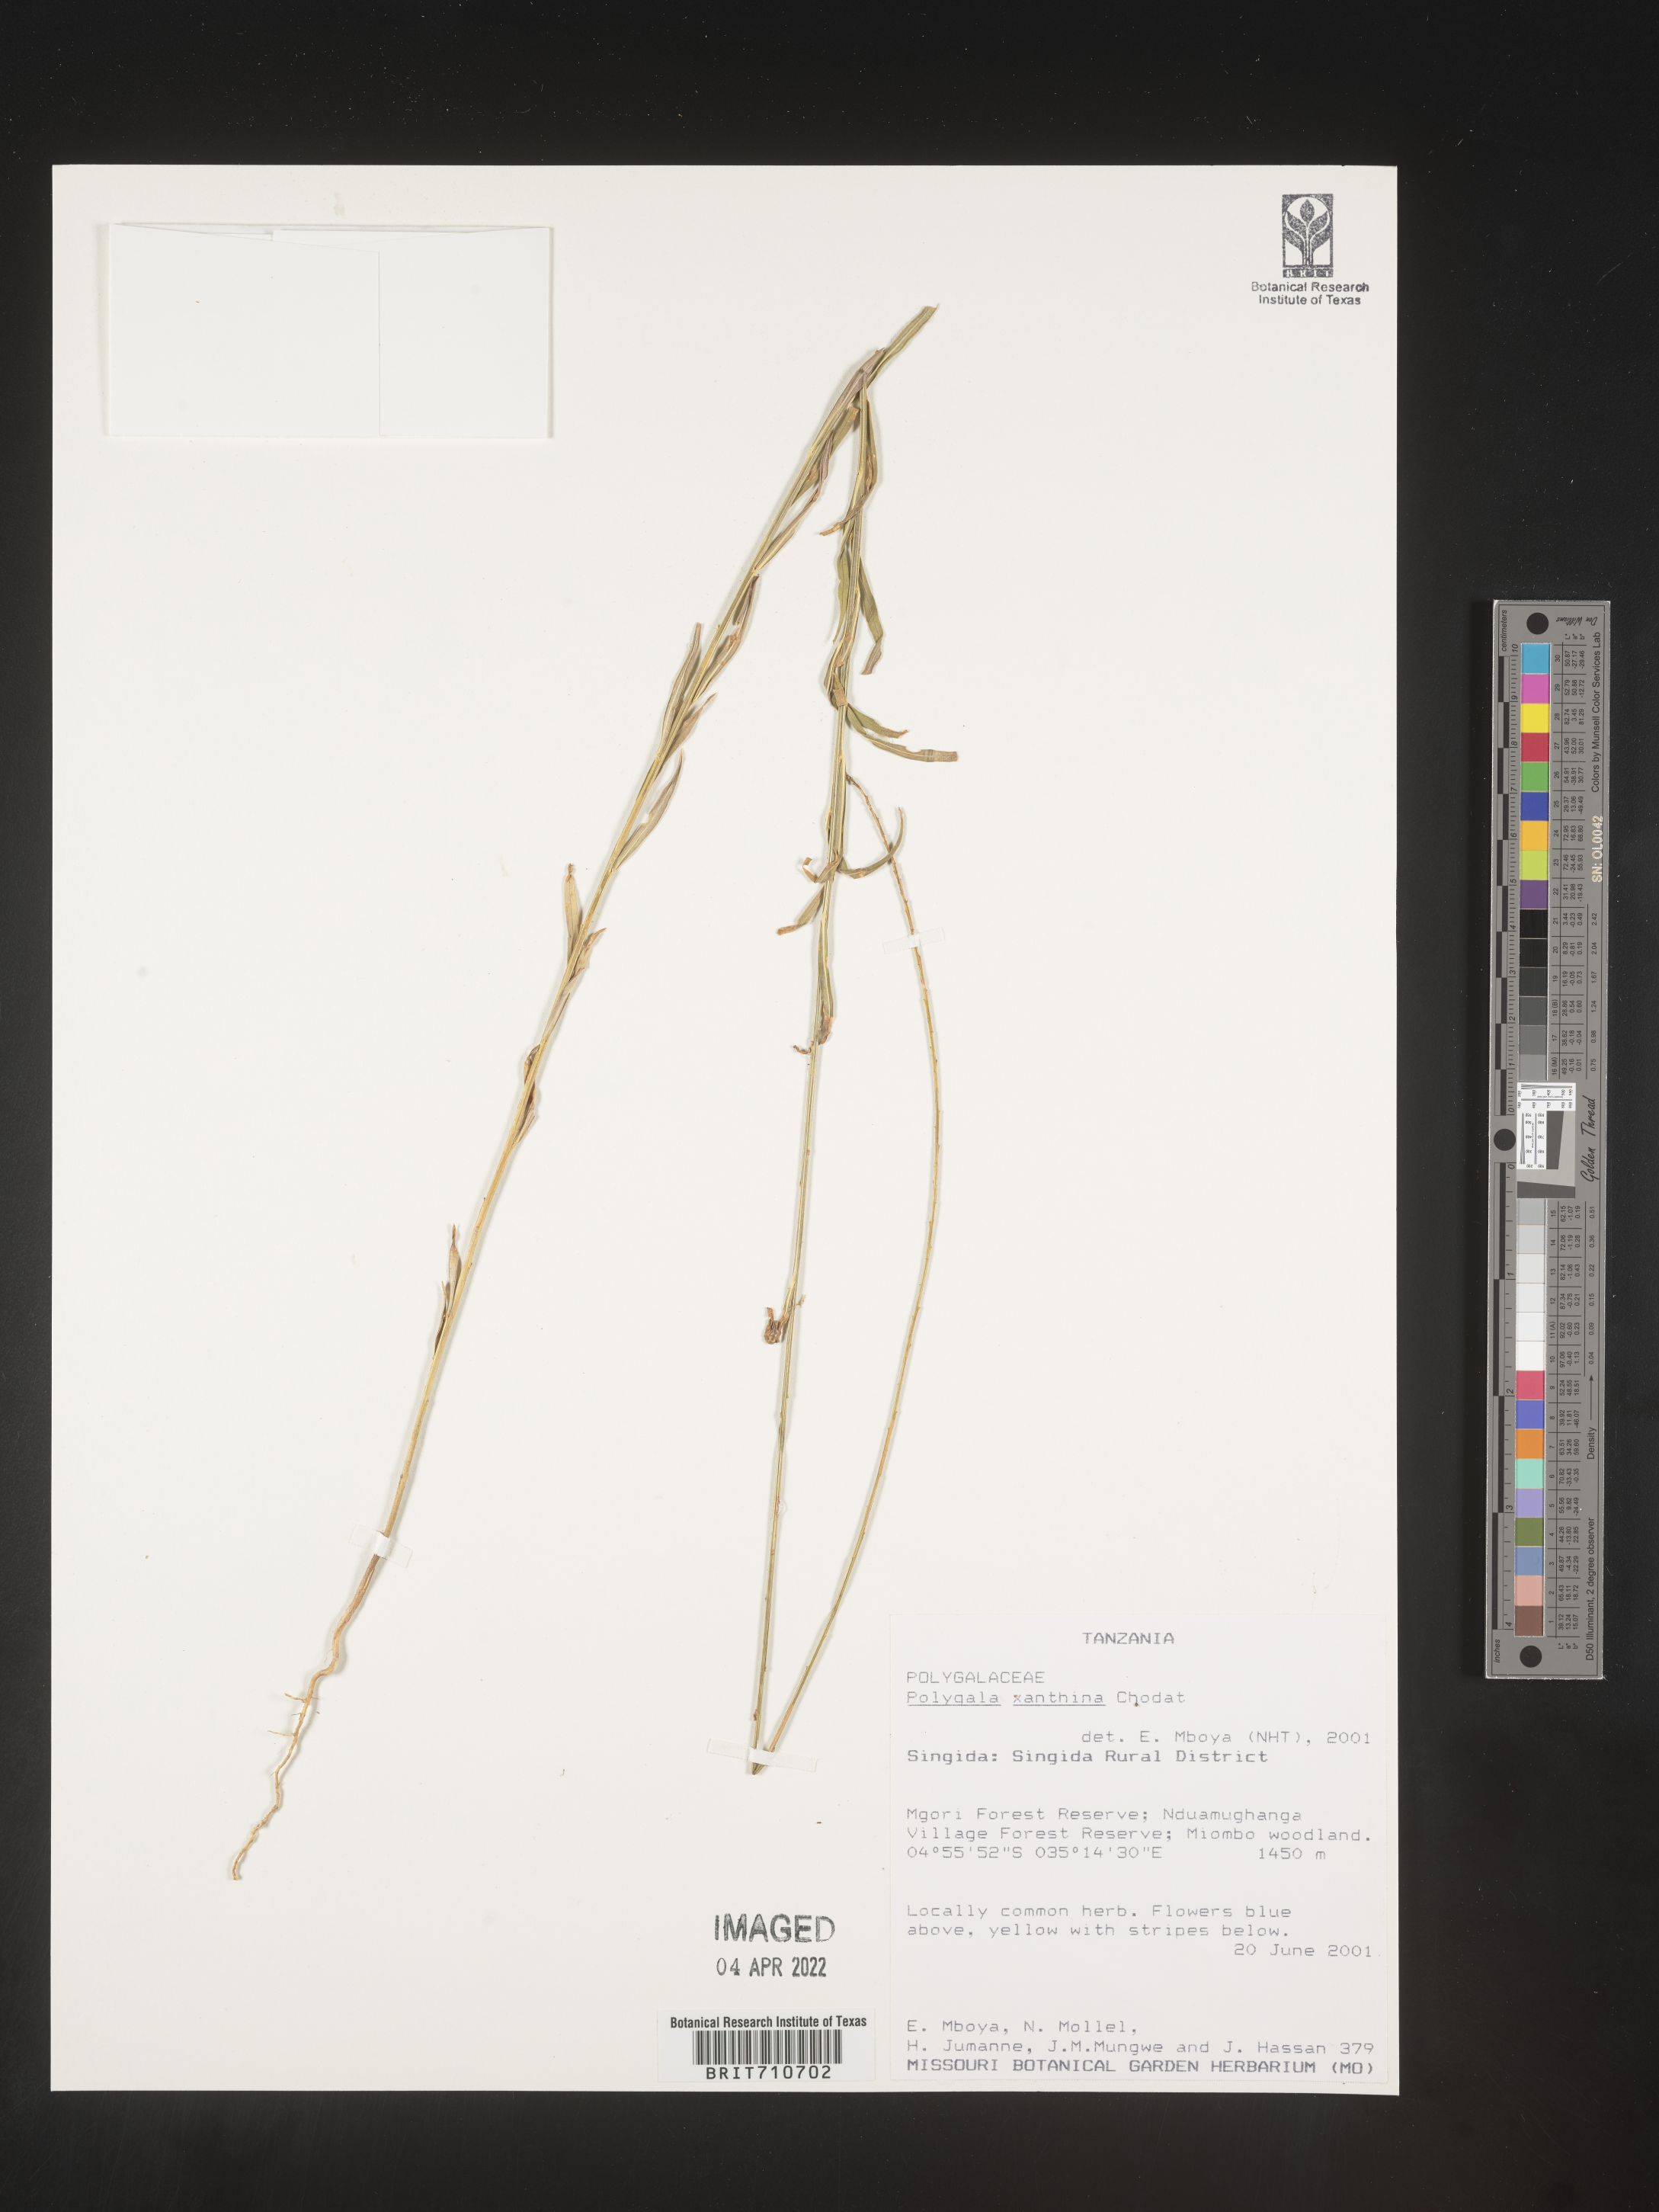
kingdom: Plantae
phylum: Tracheophyta
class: Magnoliopsida
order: Fabales
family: Polygalaceae
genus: Polygala
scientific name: Polygala
